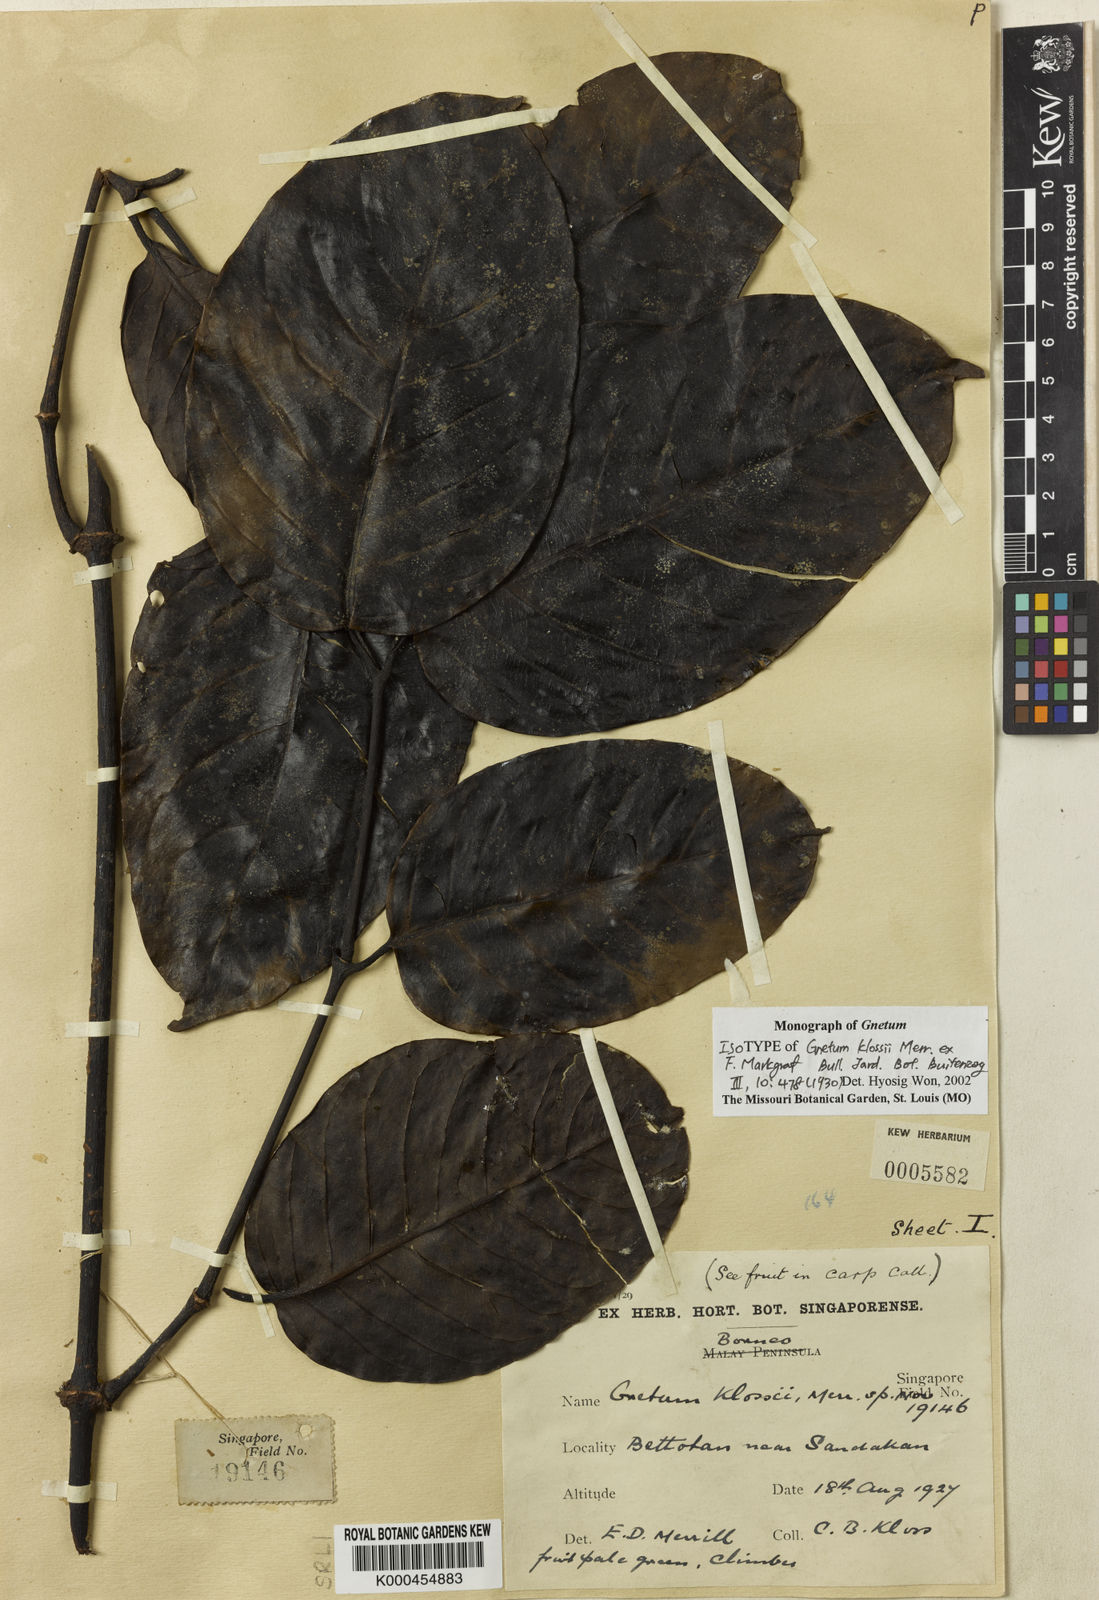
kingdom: Plantae
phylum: Tracheophyta
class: Gnetopsida
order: Gnetales
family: Gnetaceae
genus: Gnetum
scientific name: Gnetum klossii
